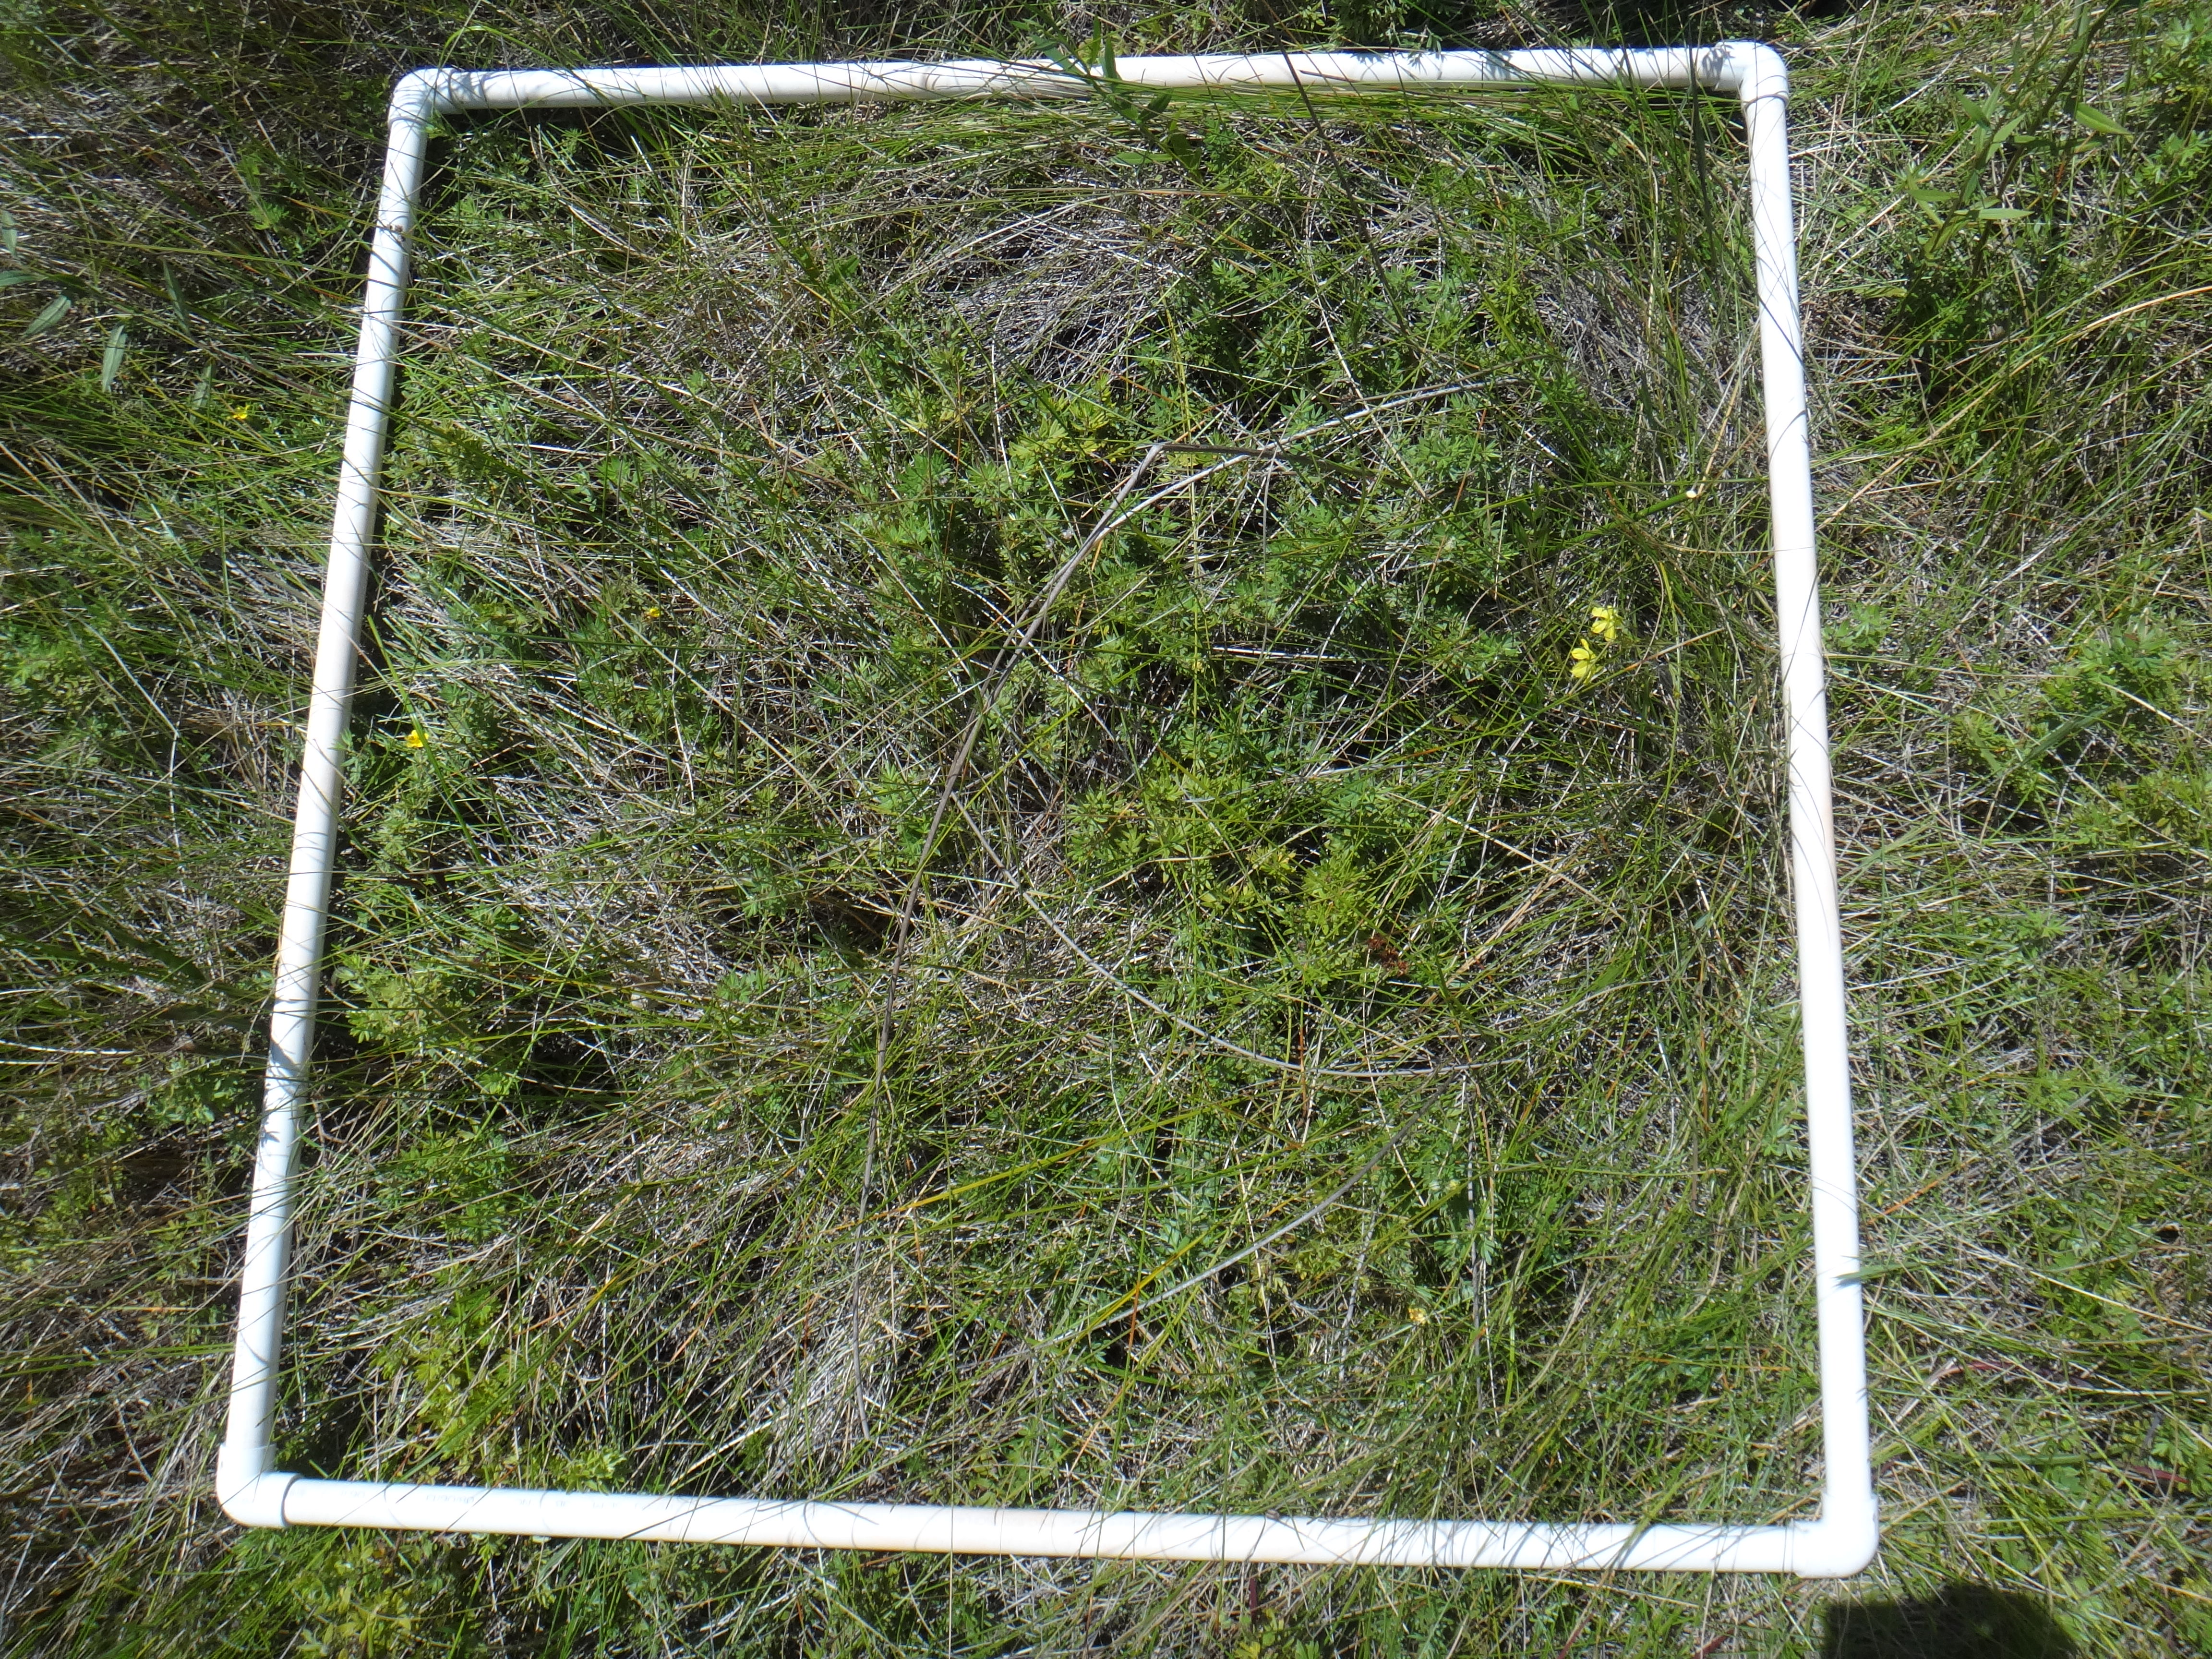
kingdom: Plantae
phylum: Tracheophyta
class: Liliopsida
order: Poales
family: Poaceae
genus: Dichanthelium
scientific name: Dichanthelium implicatum
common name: Slender-stemmed panicgrass
